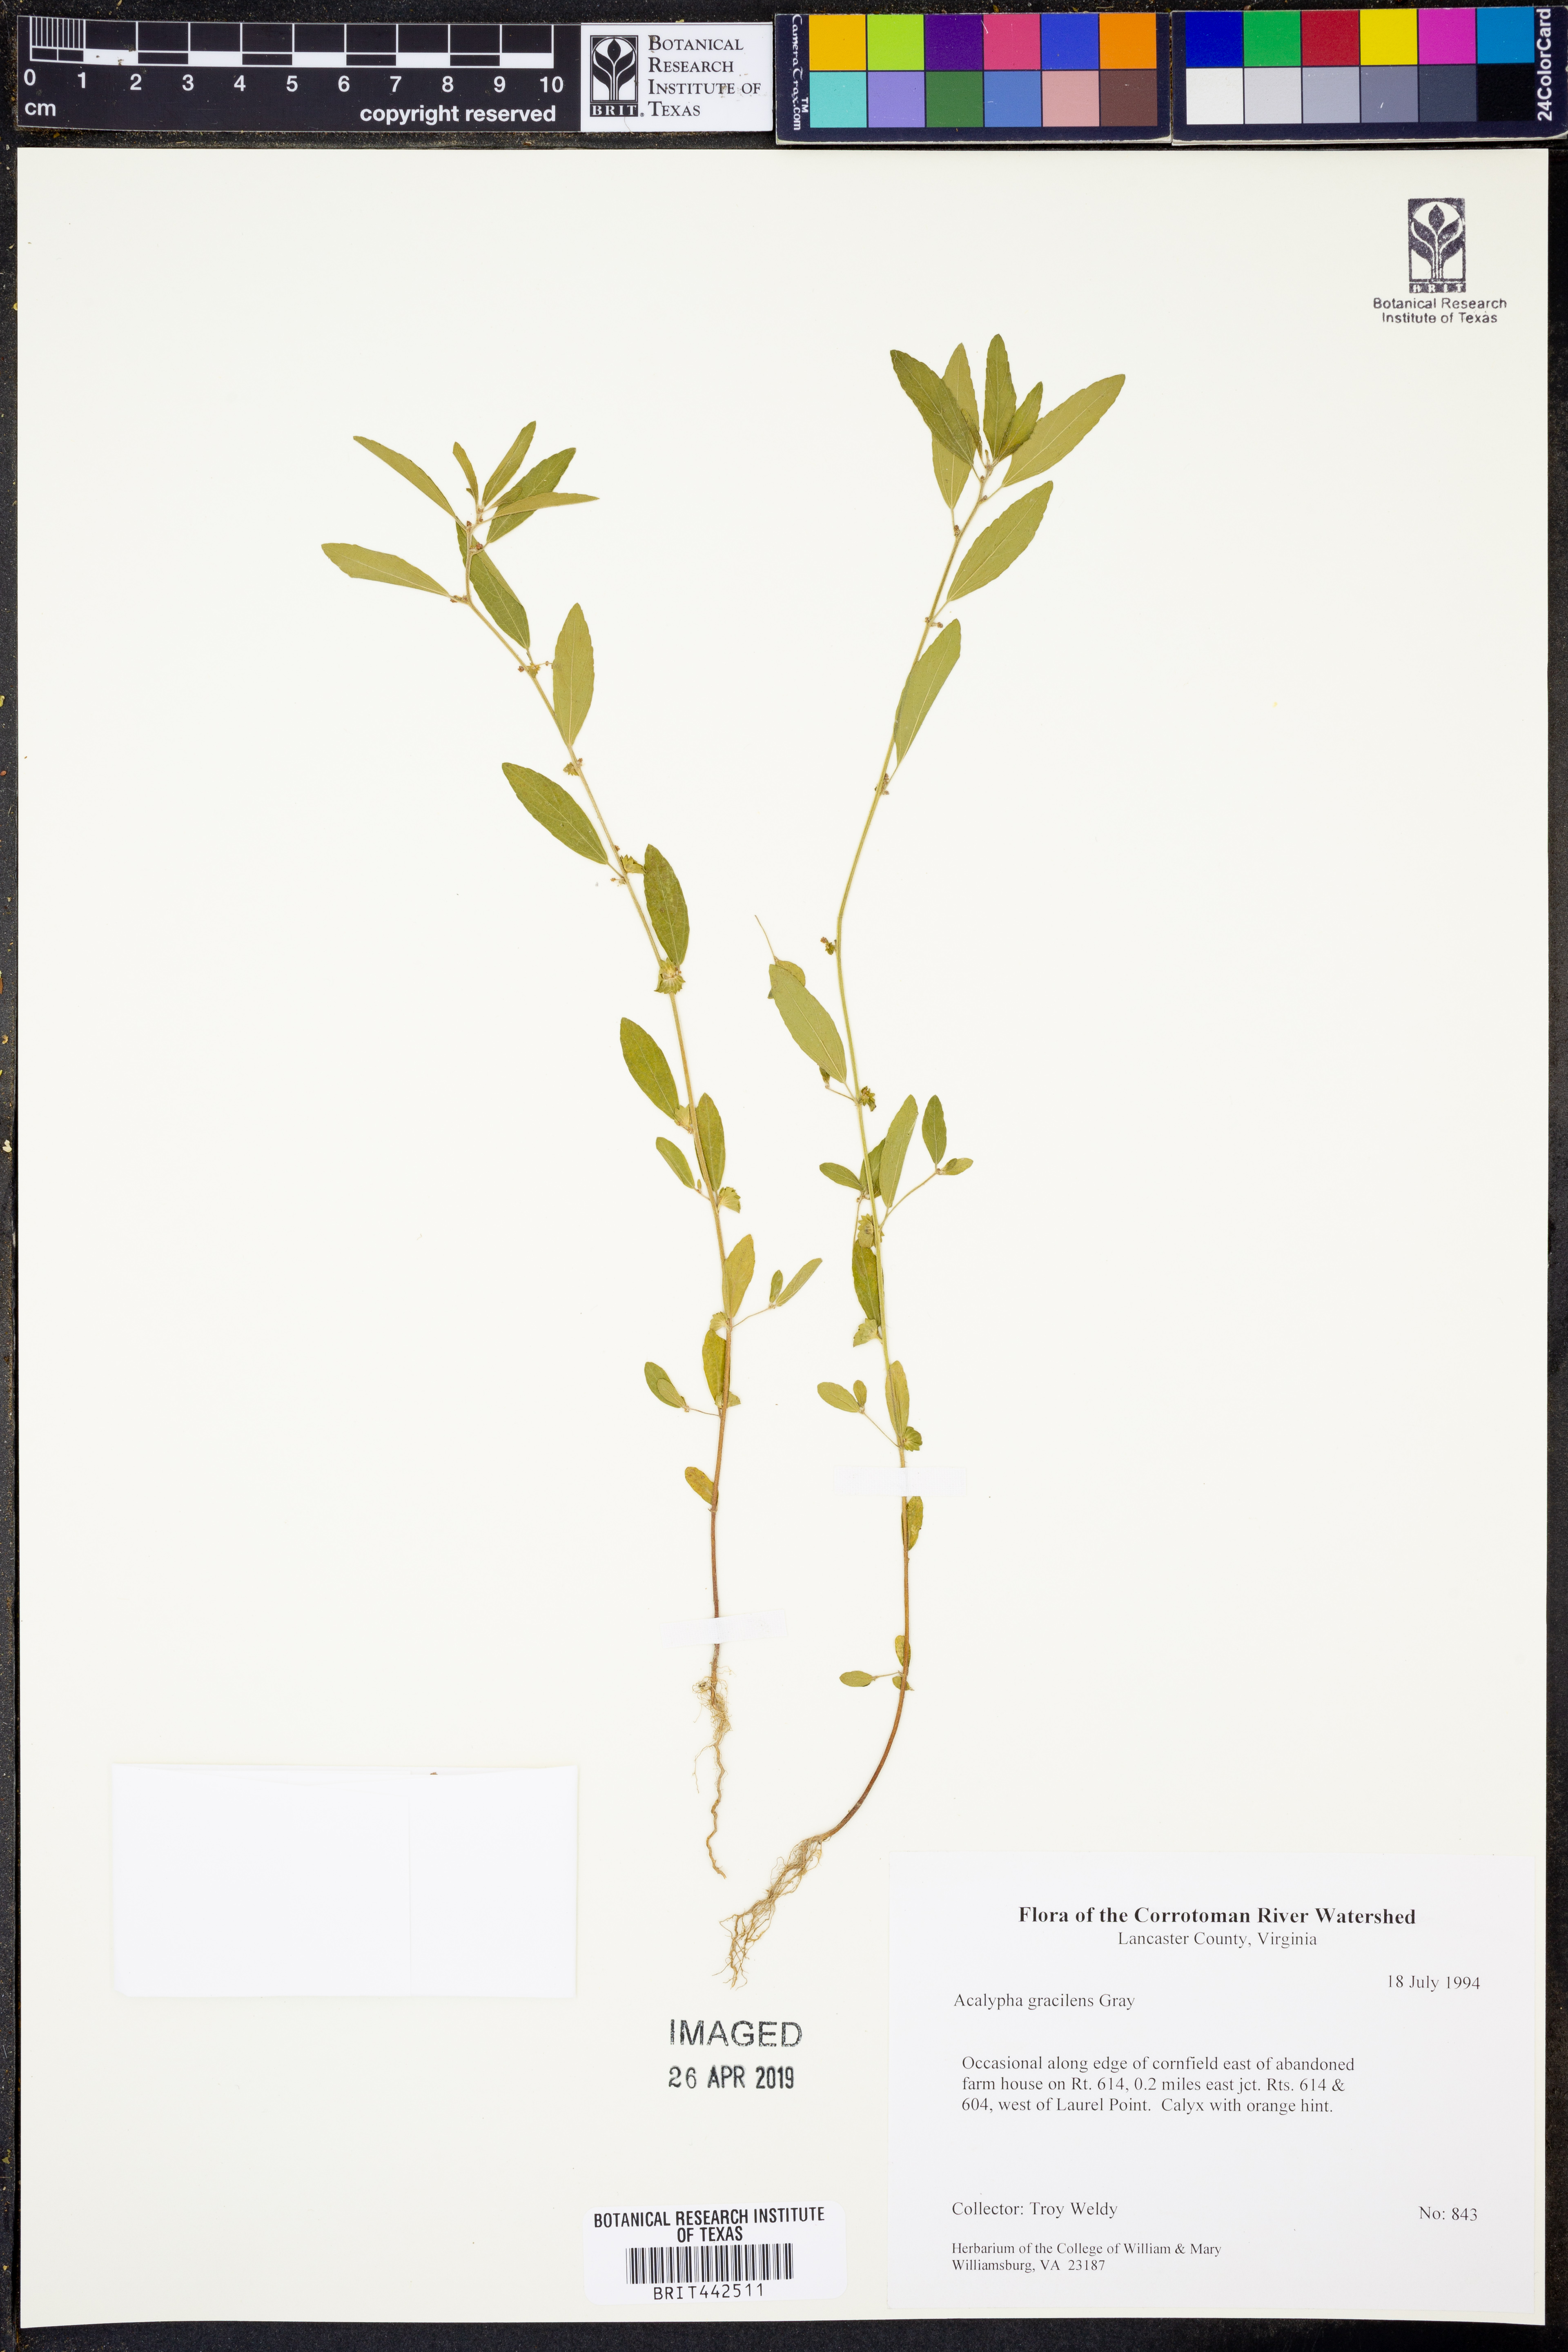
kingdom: Plantae
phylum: Tracheophyta
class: Magnoliopsida
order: Malpighiales
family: Euphorbiaceae
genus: Acalypha
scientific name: Acalypha gracilens
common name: Slender three-seeded mercury
